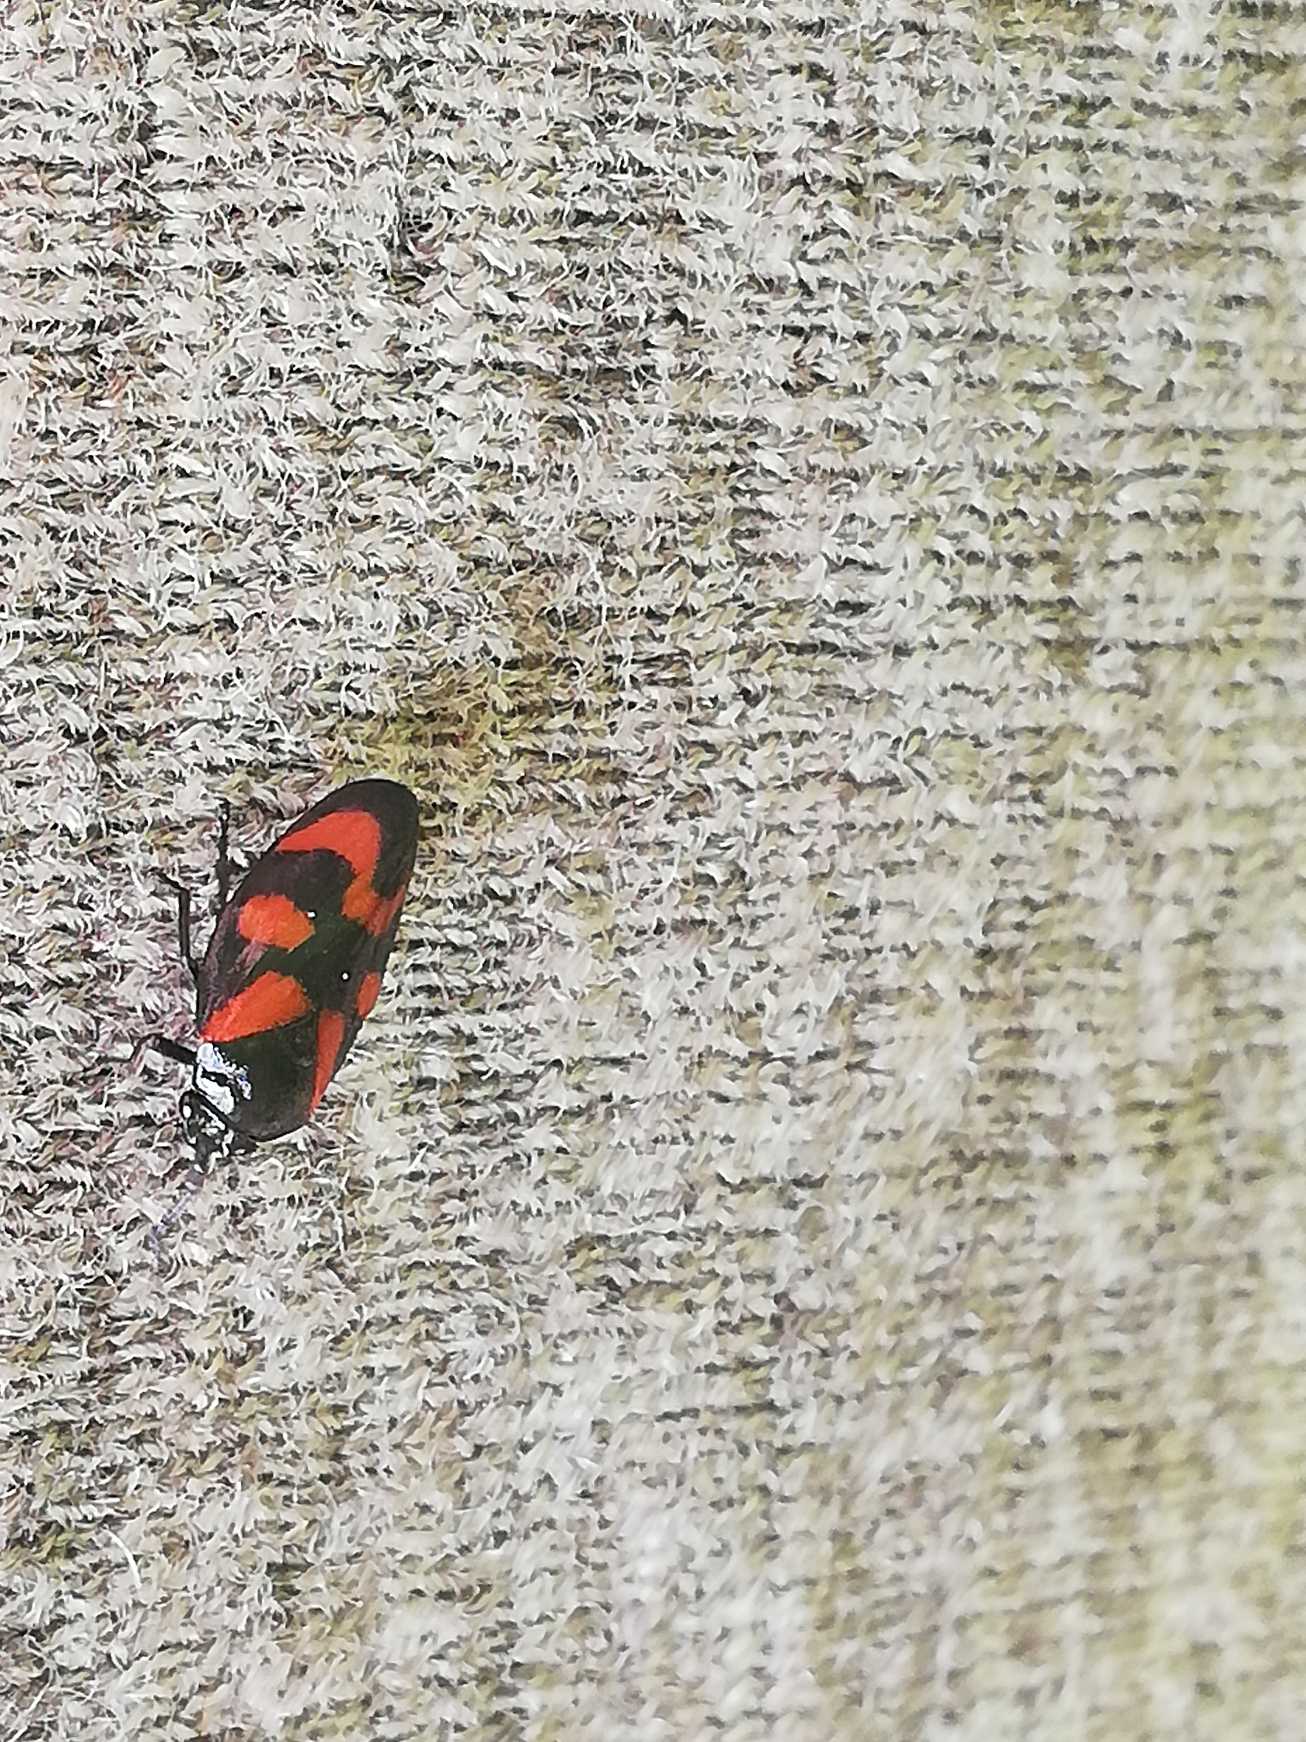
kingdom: Animalia
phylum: Arthropoda
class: Insecta
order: Hemiptera
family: Cercopidae
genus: Cercopis
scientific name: Cercopis vulnerata
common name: Blodcikade
